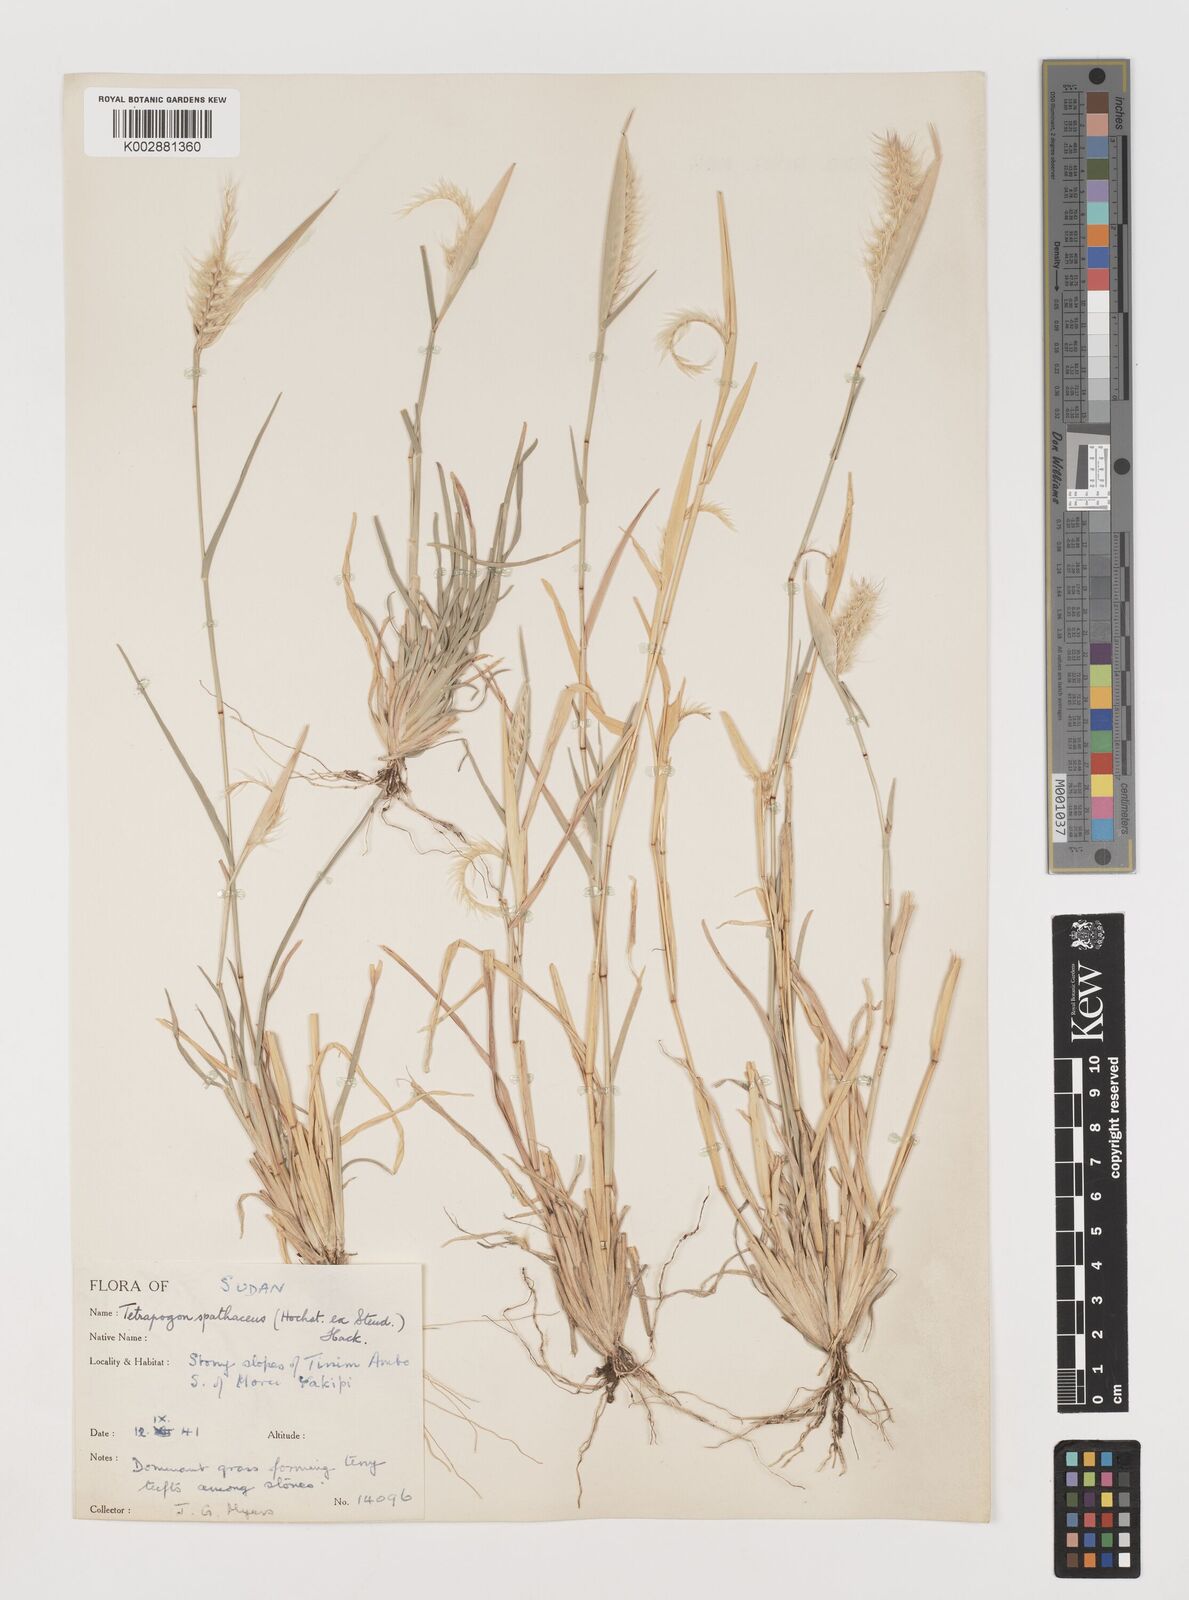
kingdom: Plantae
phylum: Tracheophyta
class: Liliopsida
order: Poales
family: Poaceae
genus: Tetrapogon
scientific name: Tetrapogon cenchriformis
